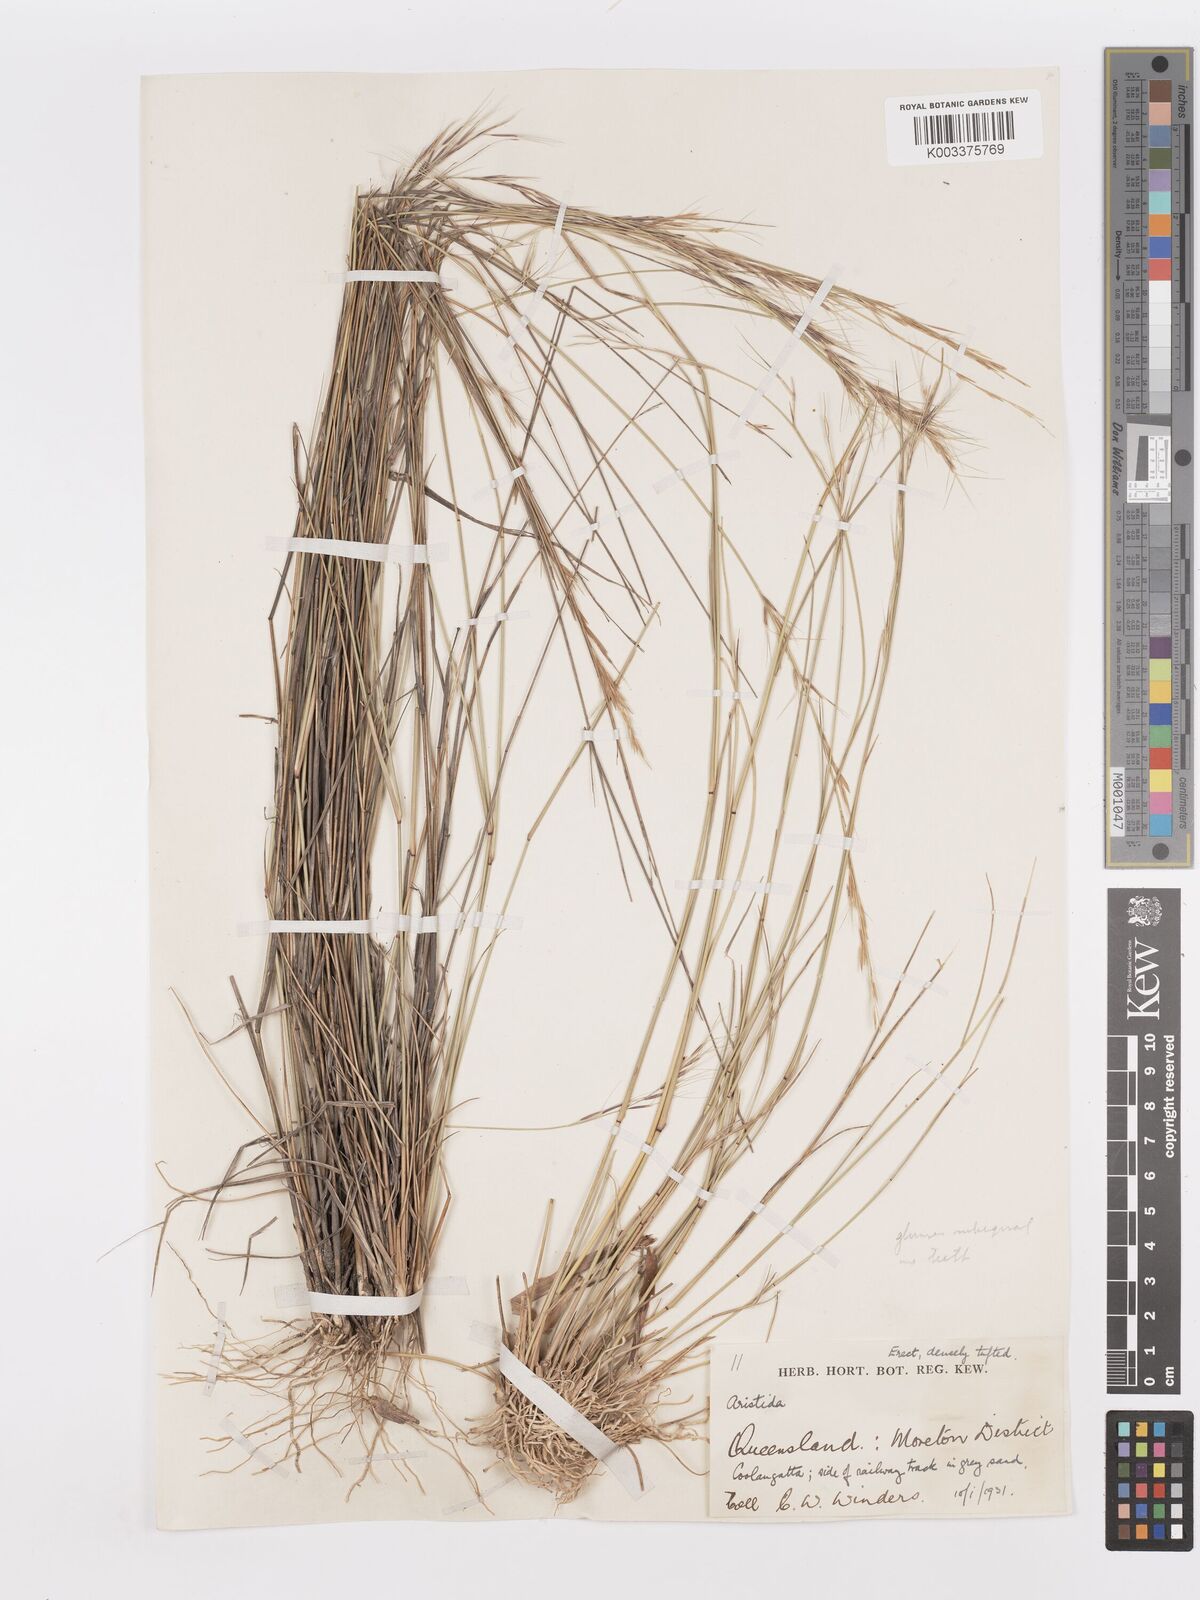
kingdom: Plantae
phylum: Tracheophyta
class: Liliopsida
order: Poales
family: Poaceae
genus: Aristida
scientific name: Aristida
